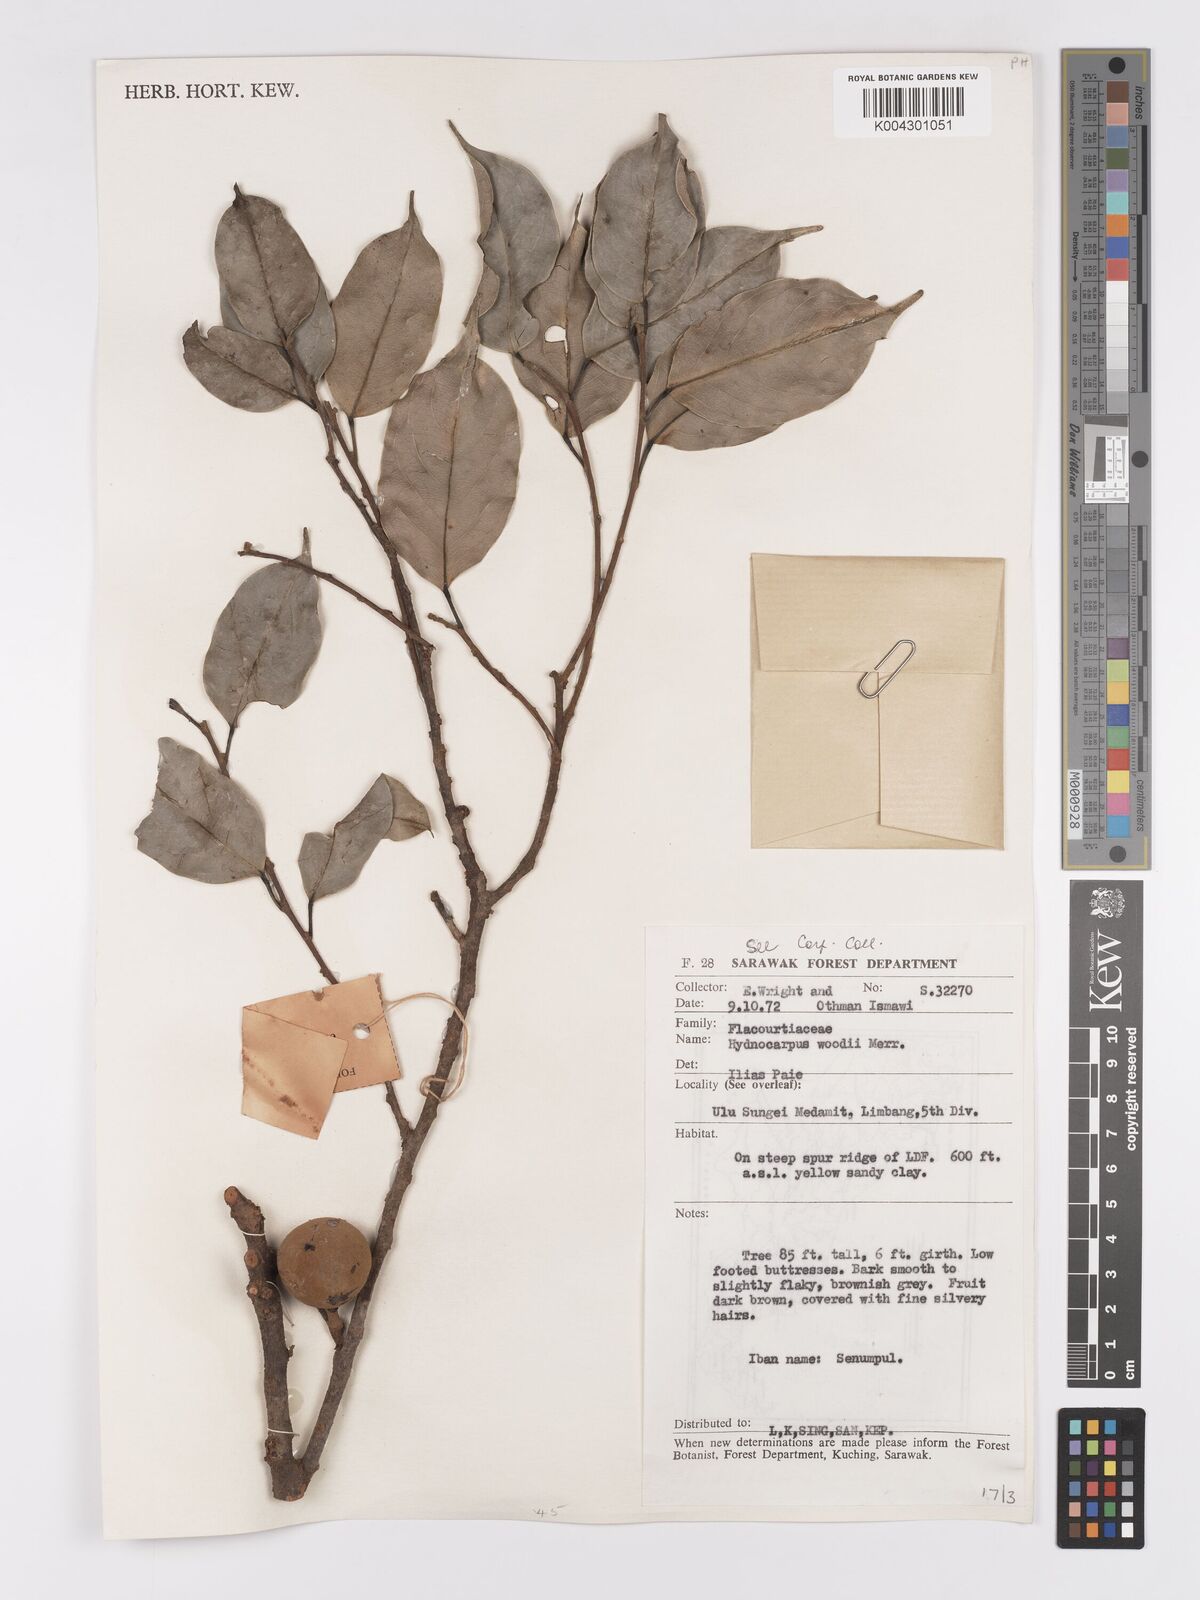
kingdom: Plantae
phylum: Tracheophyta
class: Magnoliopsida
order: Malpighiales
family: Achariaceae
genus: Hydnocarpus
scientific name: Hydnocarpus
